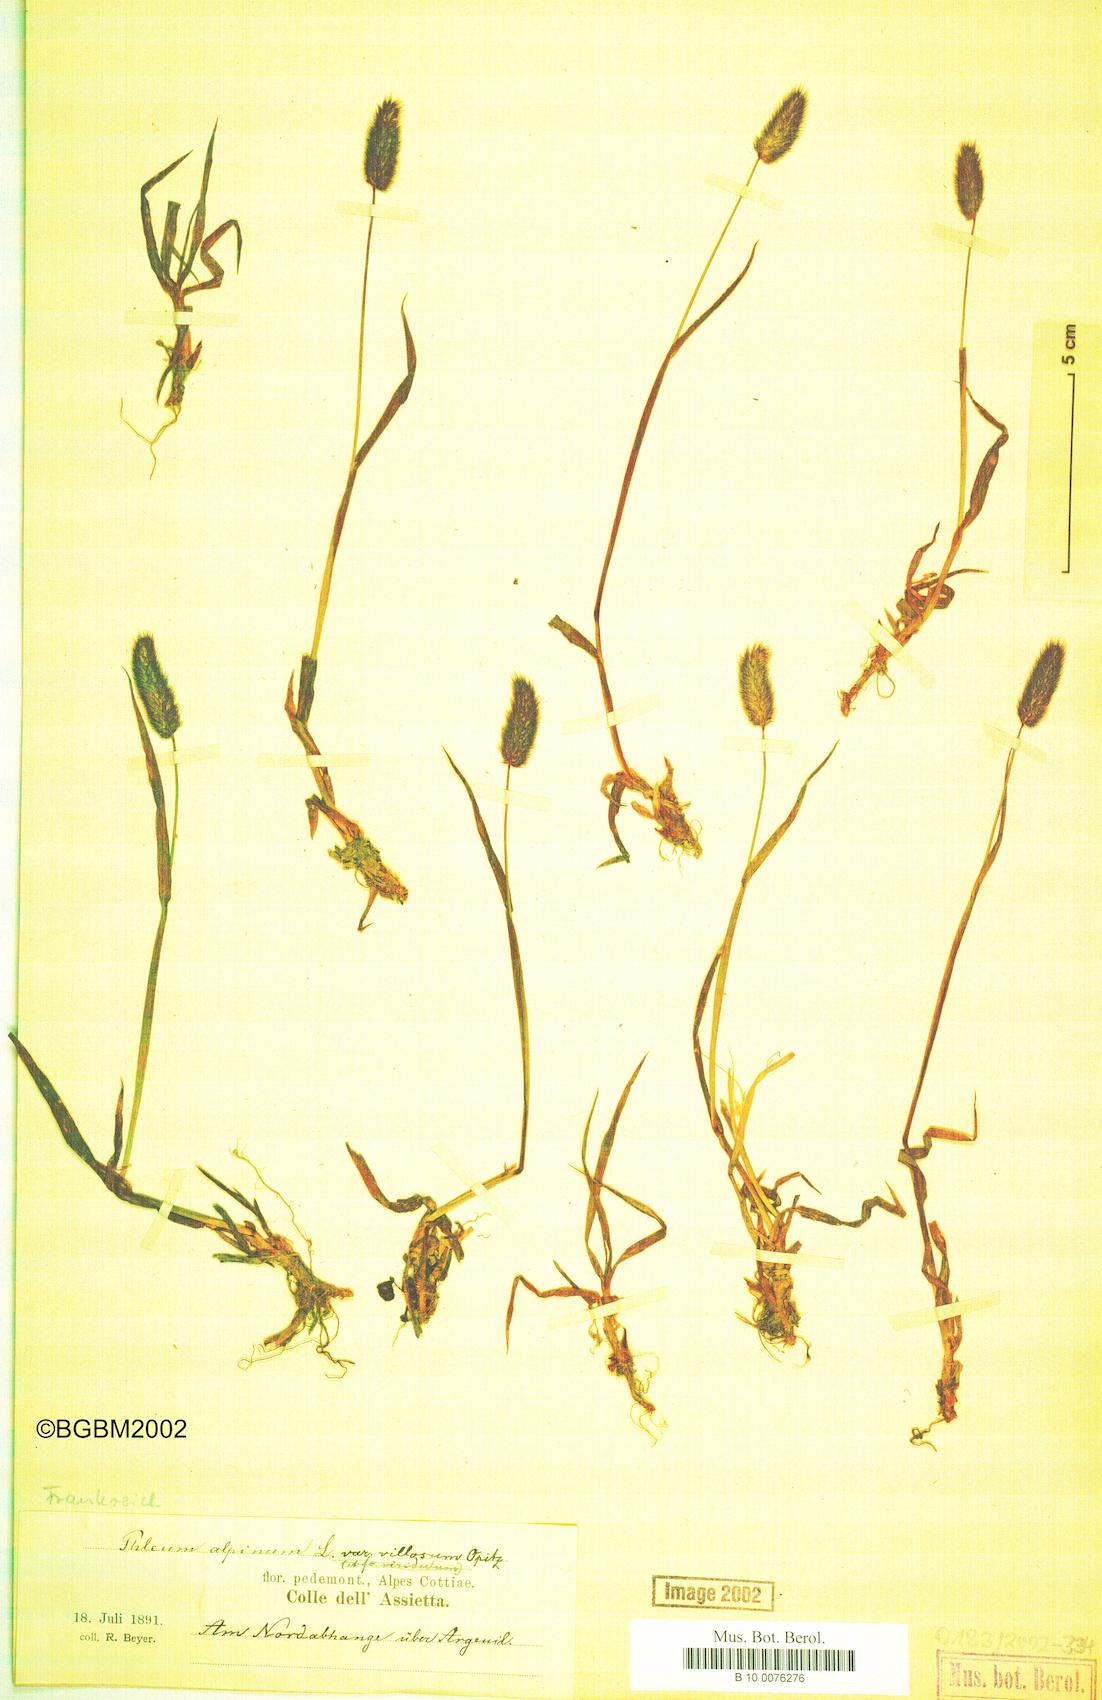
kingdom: Plantae
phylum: Tracheophyta
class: Liliopsida
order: Poales
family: Poaceae
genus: Phleum
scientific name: Phleum alpinum
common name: Alpine cat's-tail
